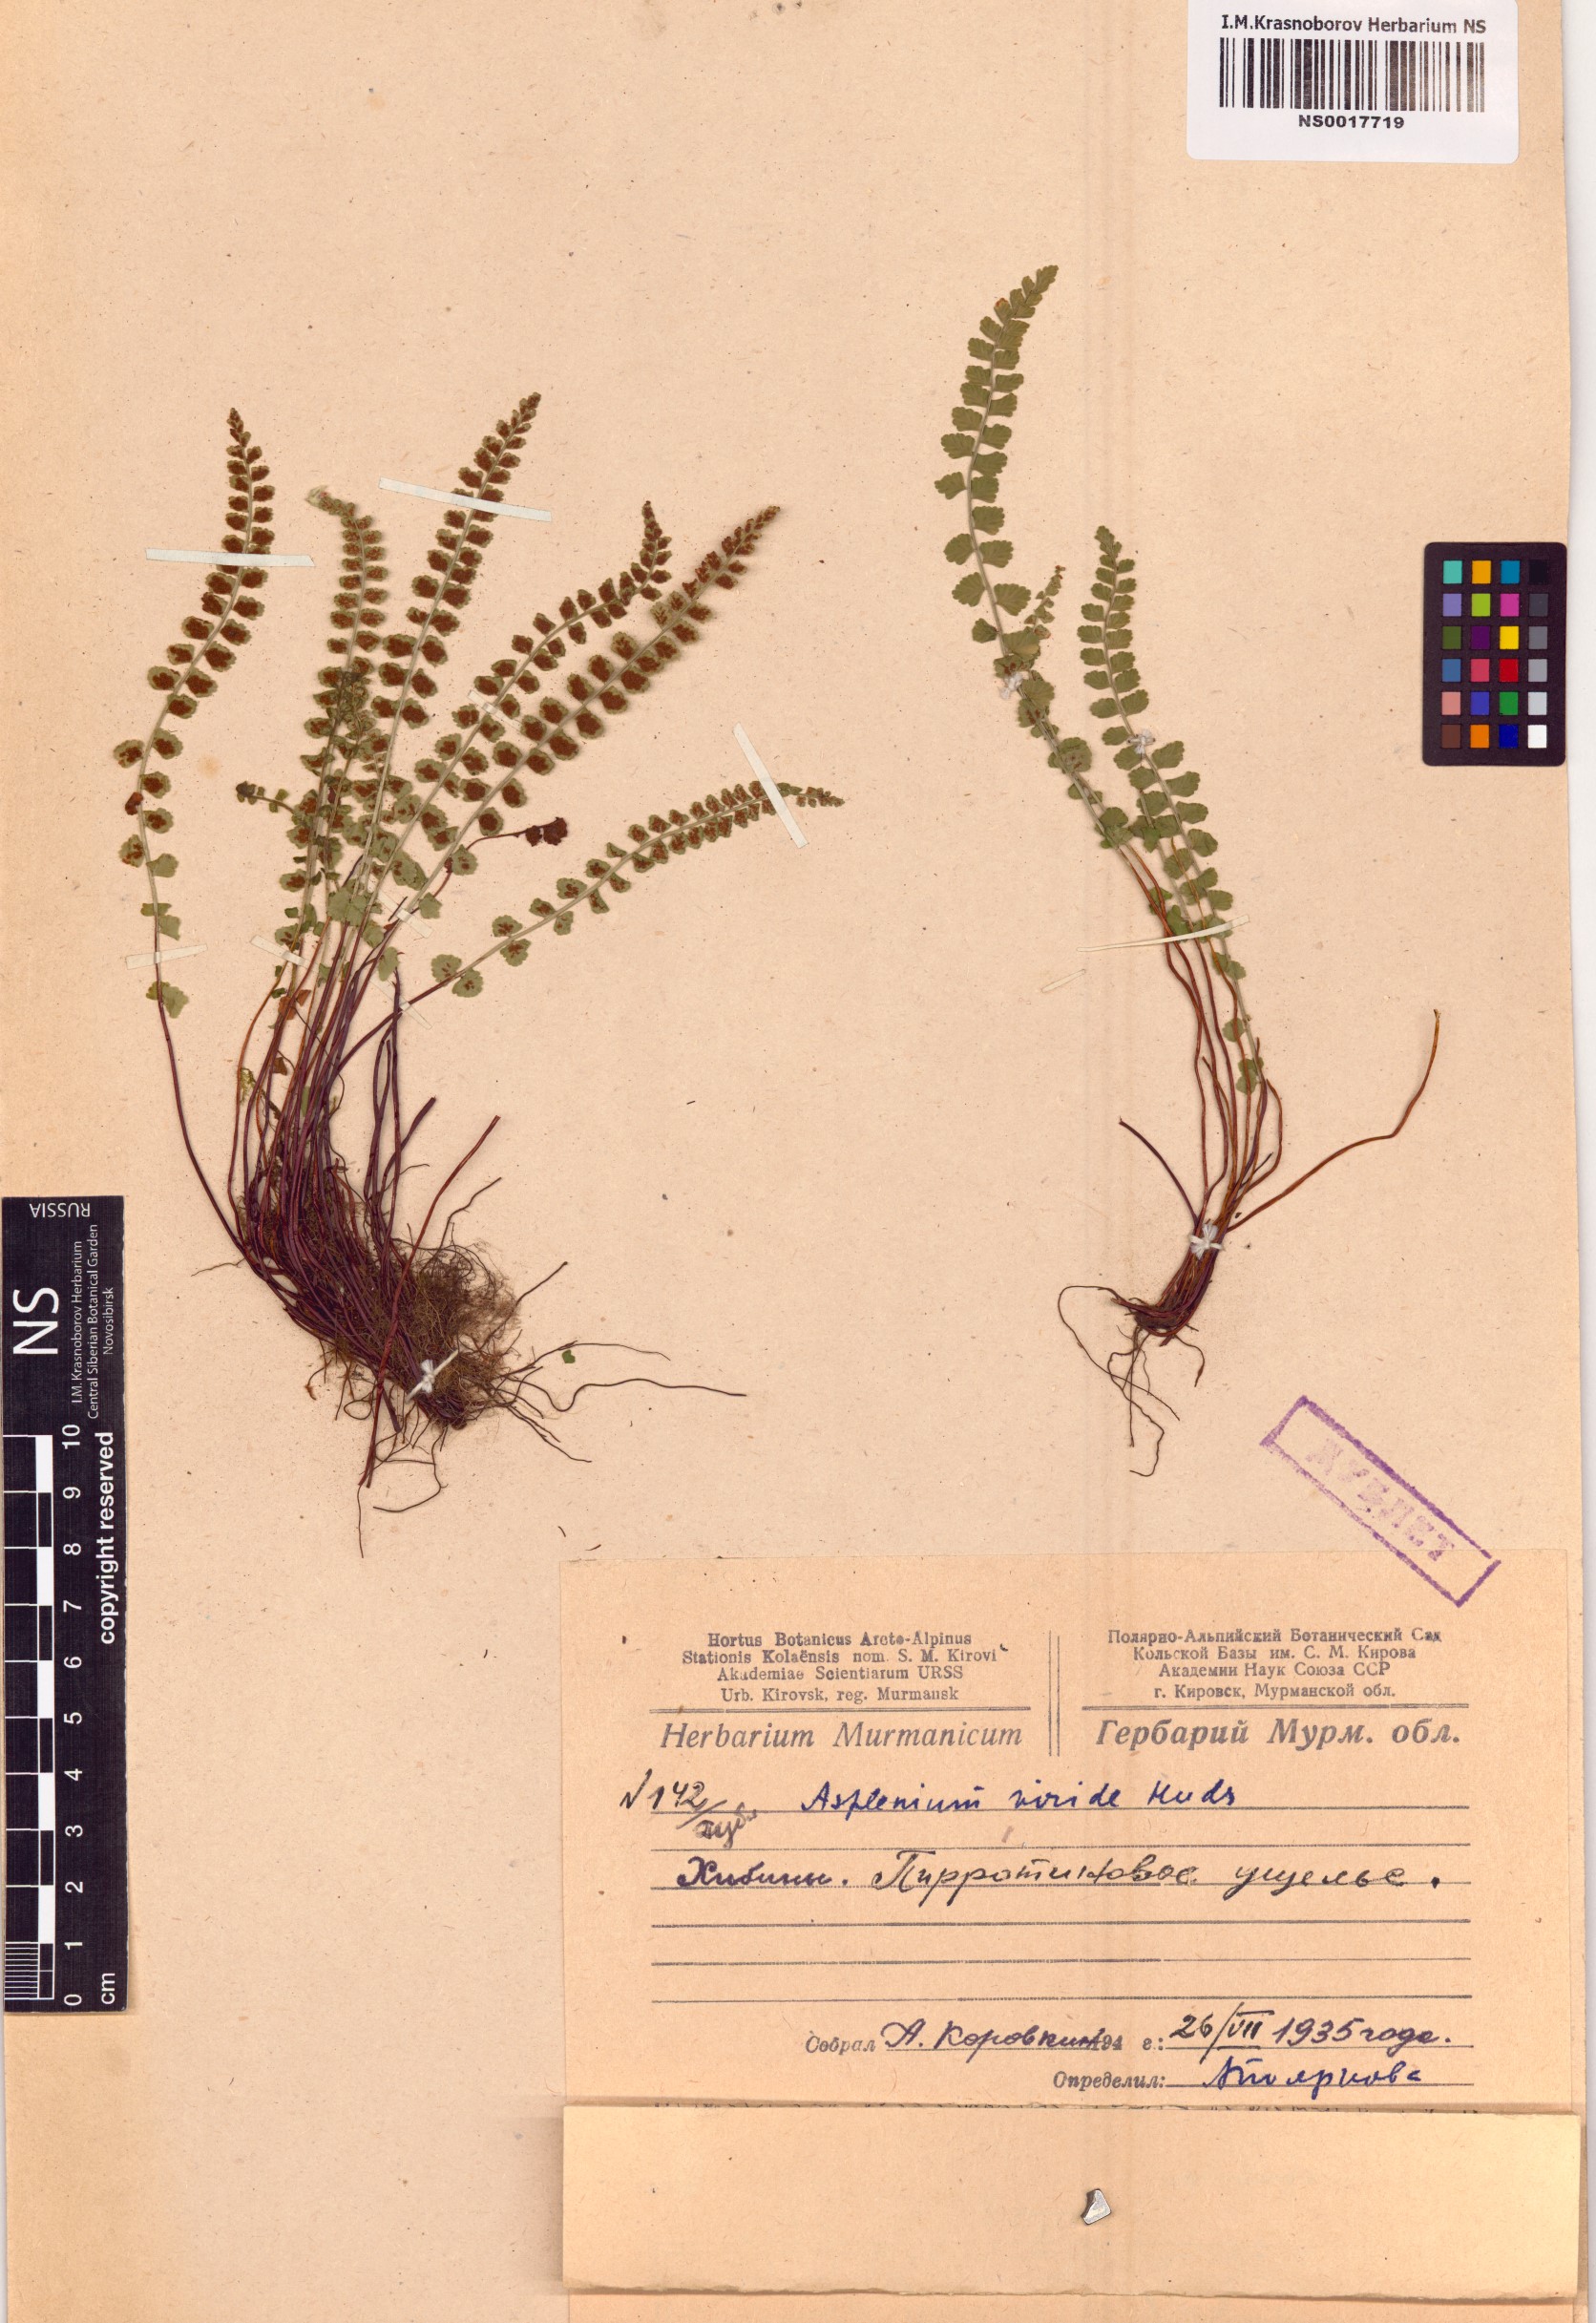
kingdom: Plantae
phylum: Tracheophyta
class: Polypodiopsida
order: Polypodiales
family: Aspleniaceae
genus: Asplenium
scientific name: Asplenium viride
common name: Green spleenwort
